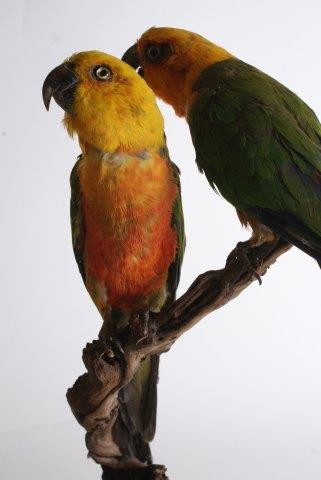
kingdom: Animalia
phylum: Chordata
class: Aves
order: Psittaciformes
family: Psittacidae
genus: Aratinga
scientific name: Aratinga jandaya
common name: Jandaya parakeet
